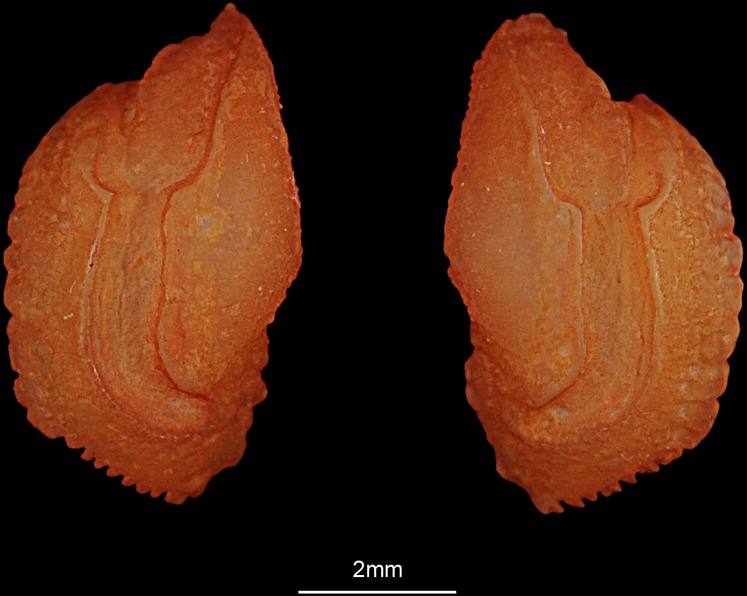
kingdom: Animalia
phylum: Chordata
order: Perciformes
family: Caesionidae
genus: Caesio
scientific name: Caesio varilineata
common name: Variable-lined fusilier
